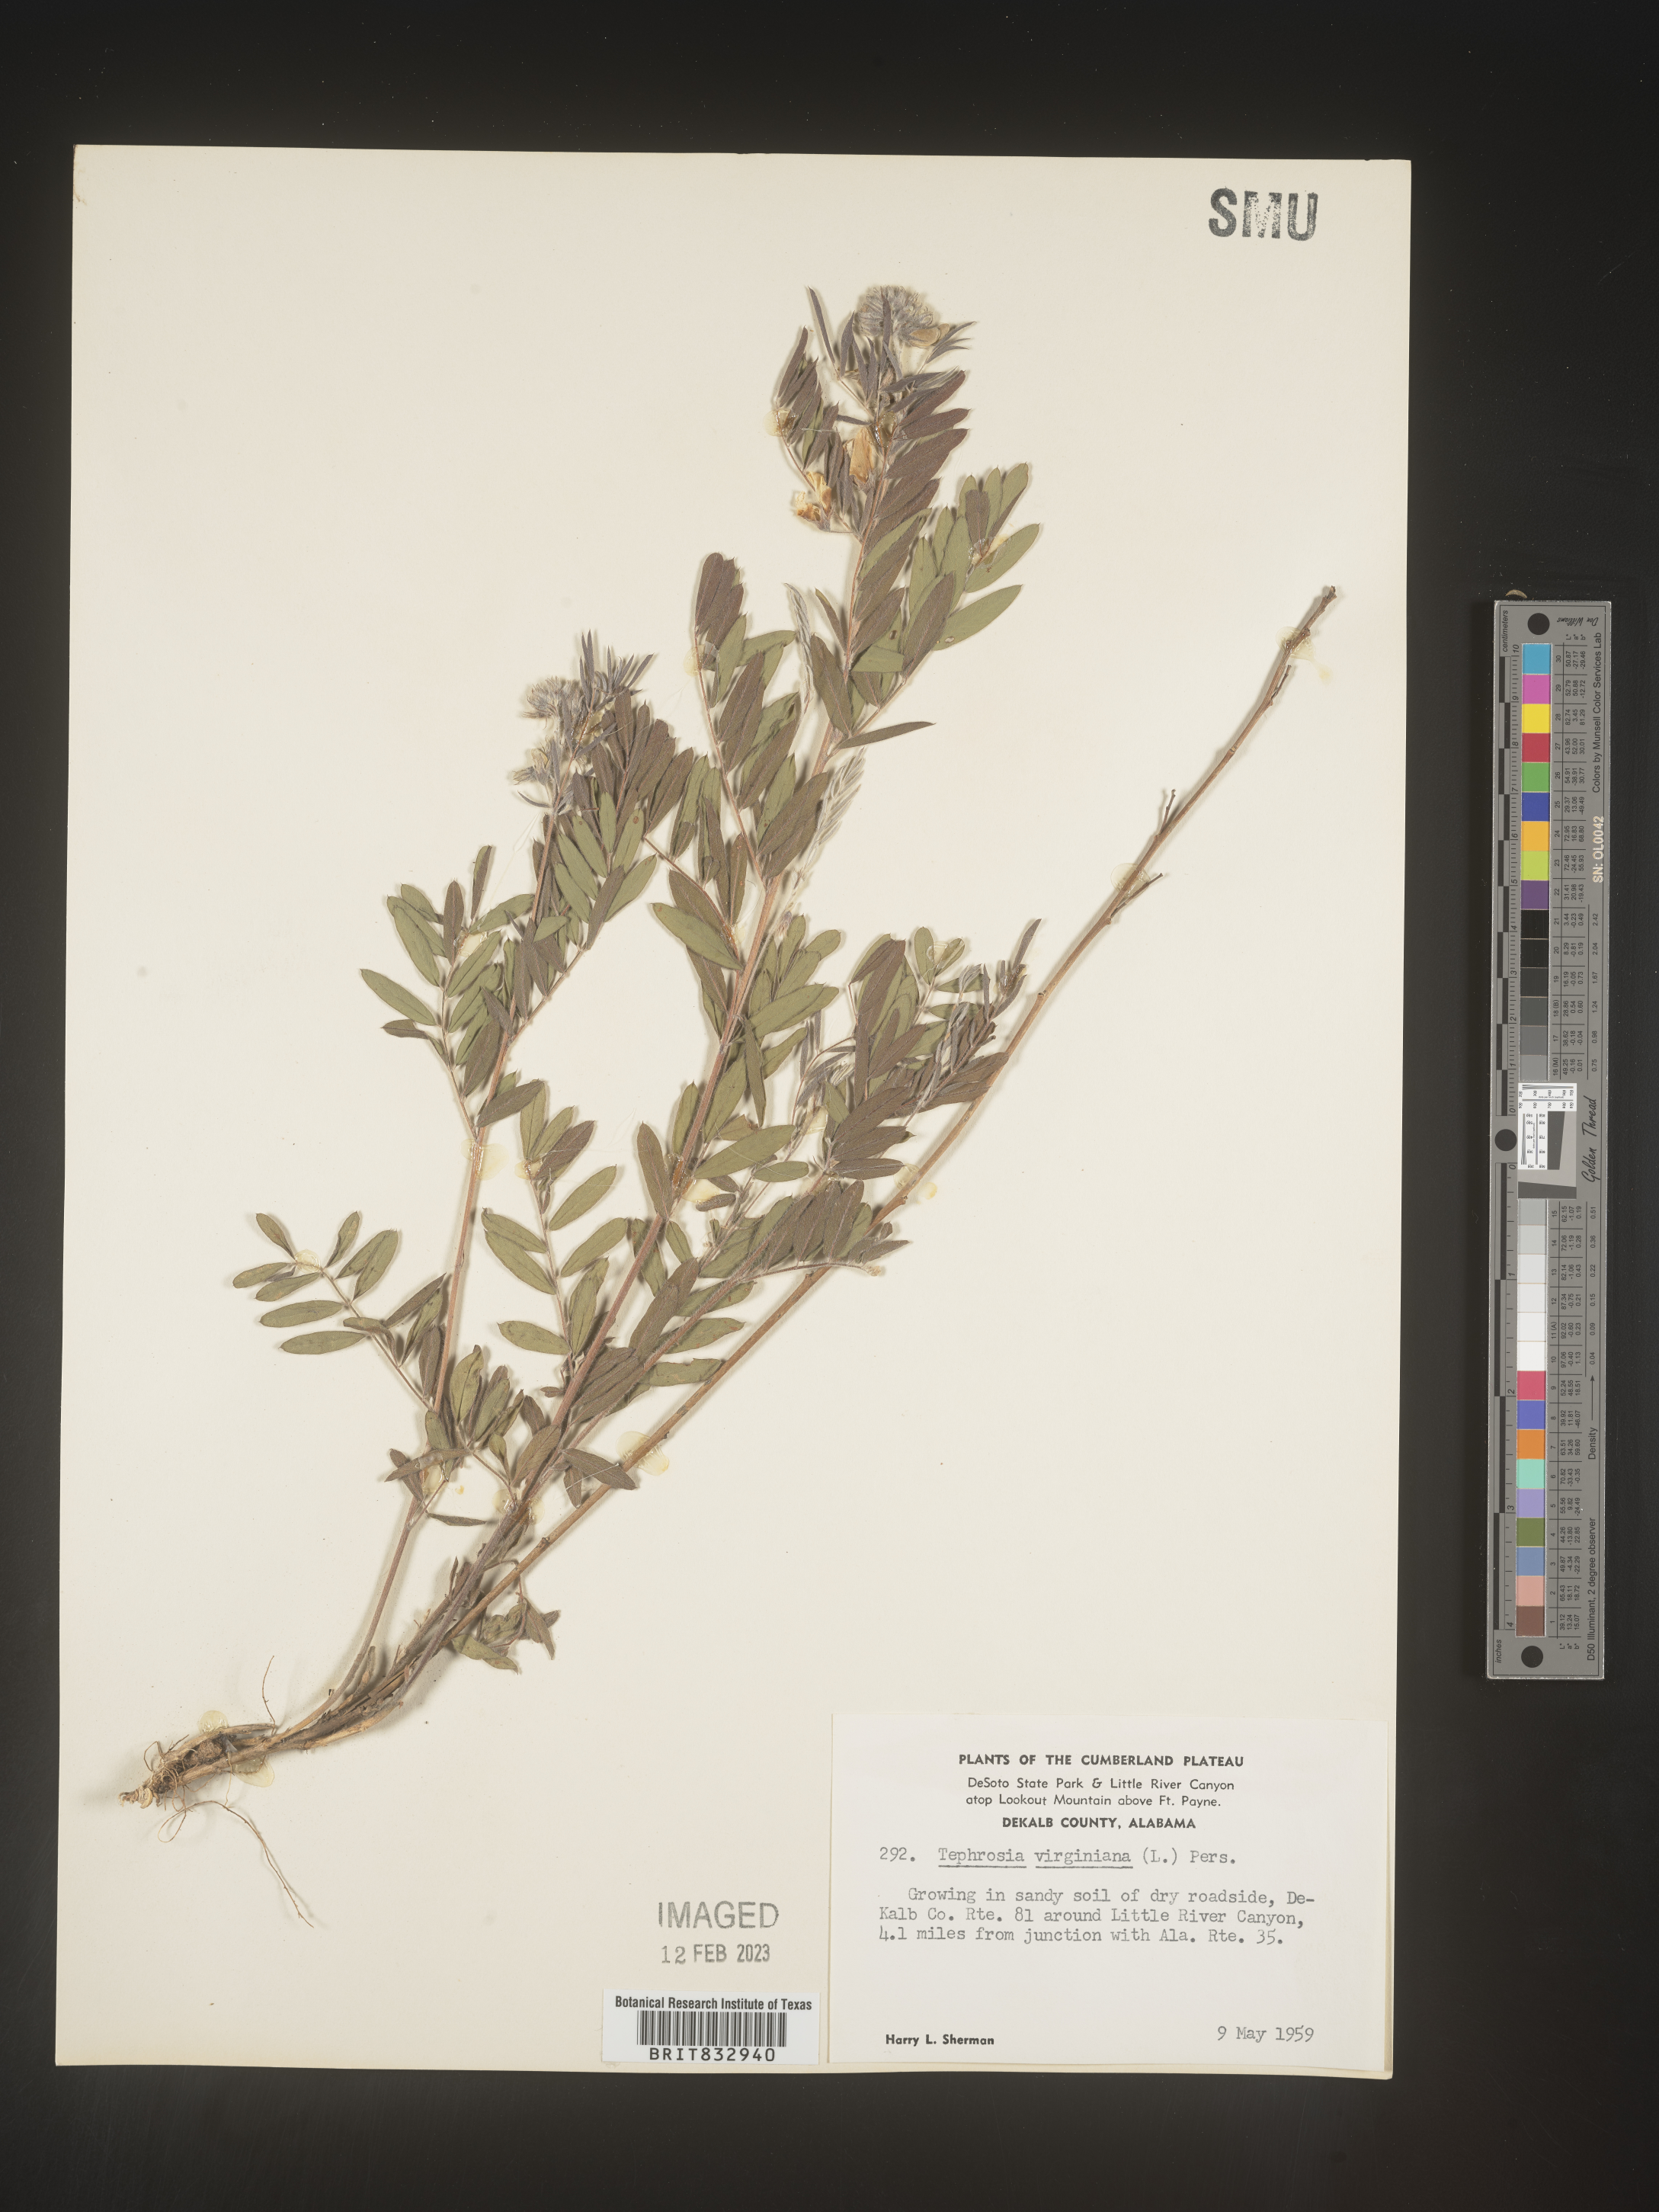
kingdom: Plantae
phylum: Tracheophyta
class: Magnoliopsida
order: Fabales
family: Fabaceae
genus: Tephrosia
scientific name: Tephrosia virginiana
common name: Rabbit-pea
